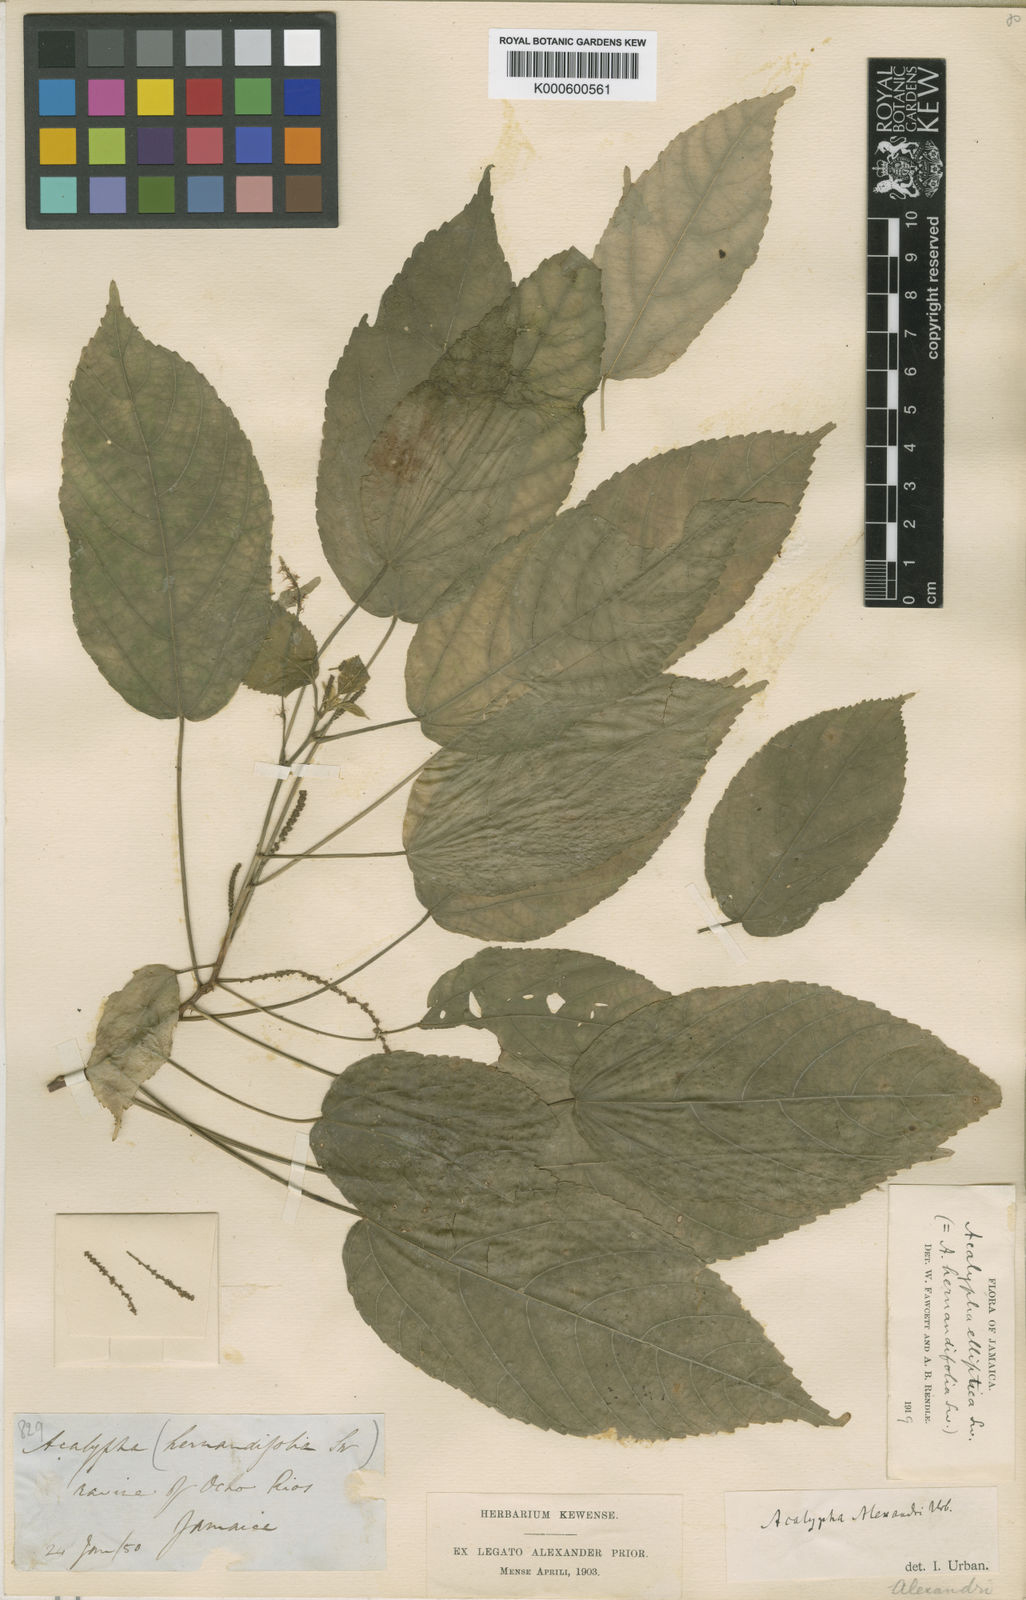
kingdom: Plantae
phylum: Tracheophyta
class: Magnoliopsida
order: Malpighiales
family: Euphorbiaceae
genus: Acalypha
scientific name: Acalypha elliptica
